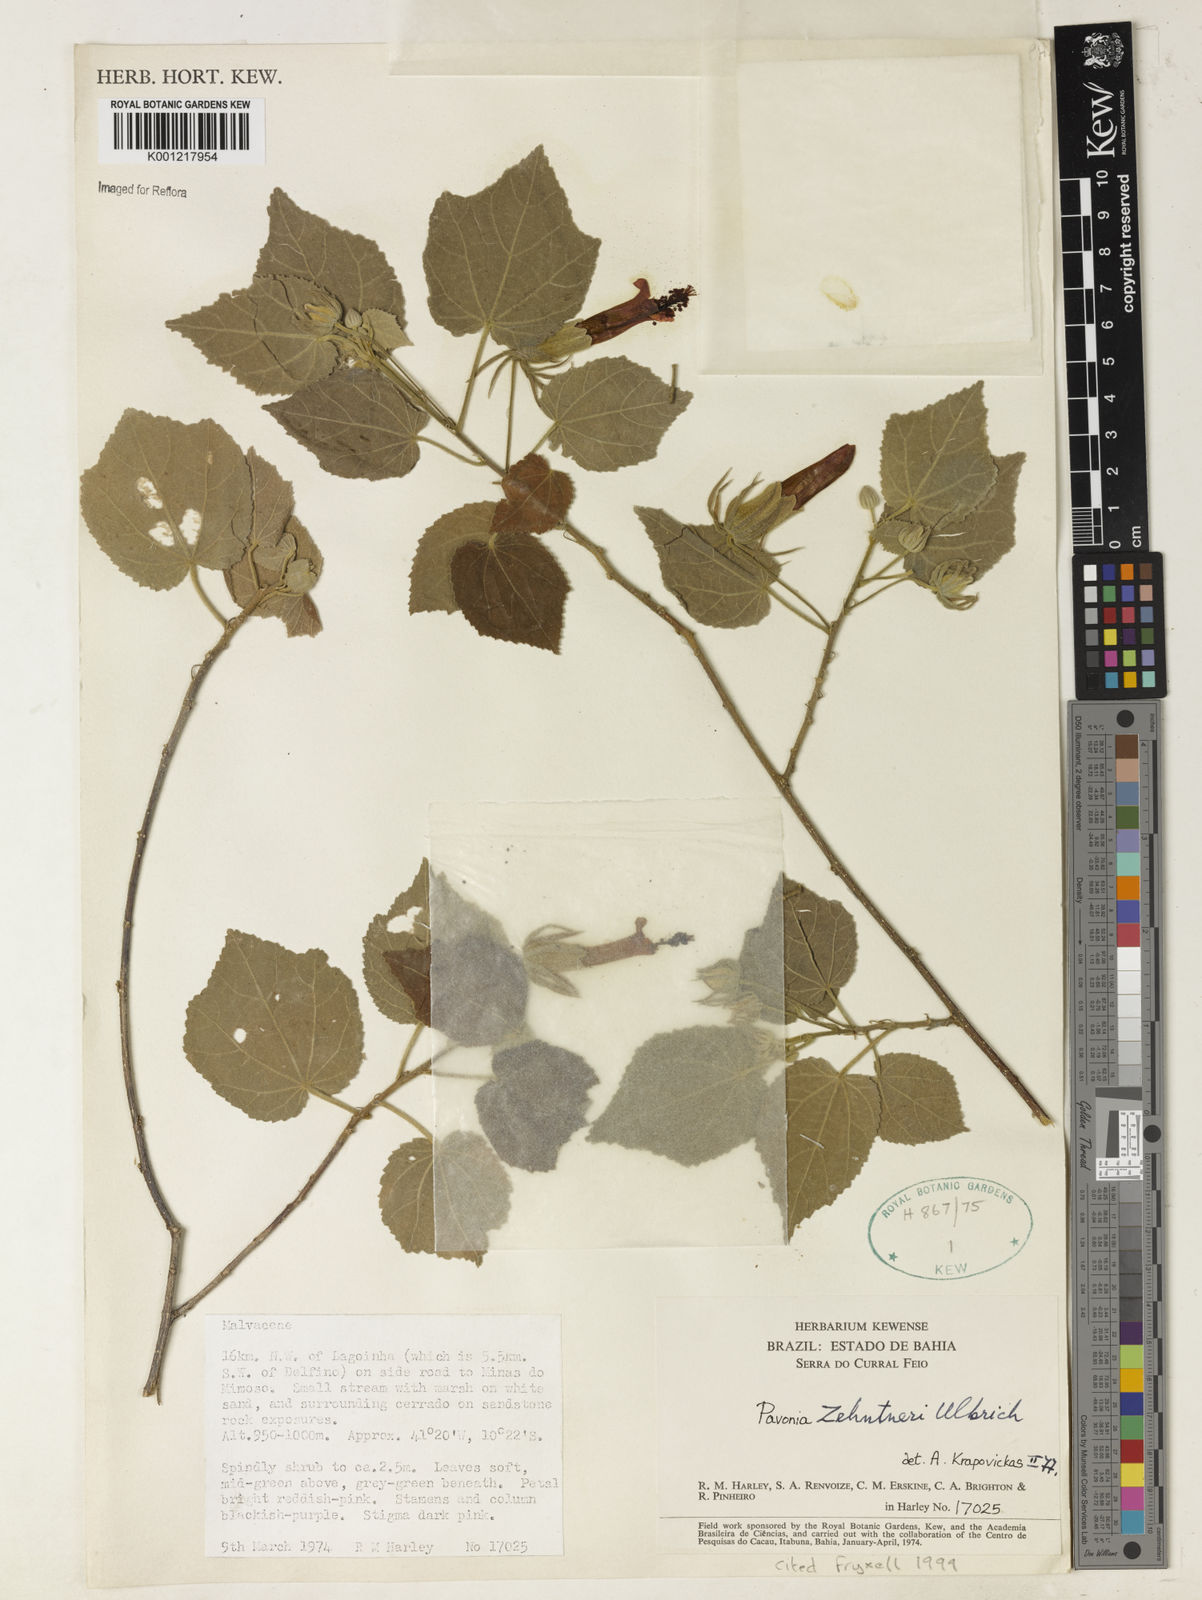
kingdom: Plantae
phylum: Tracheophyta
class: Magnoliopsida
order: Malvales
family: Malvaceae
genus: Pavonia
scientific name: Pavonia zehntneri
